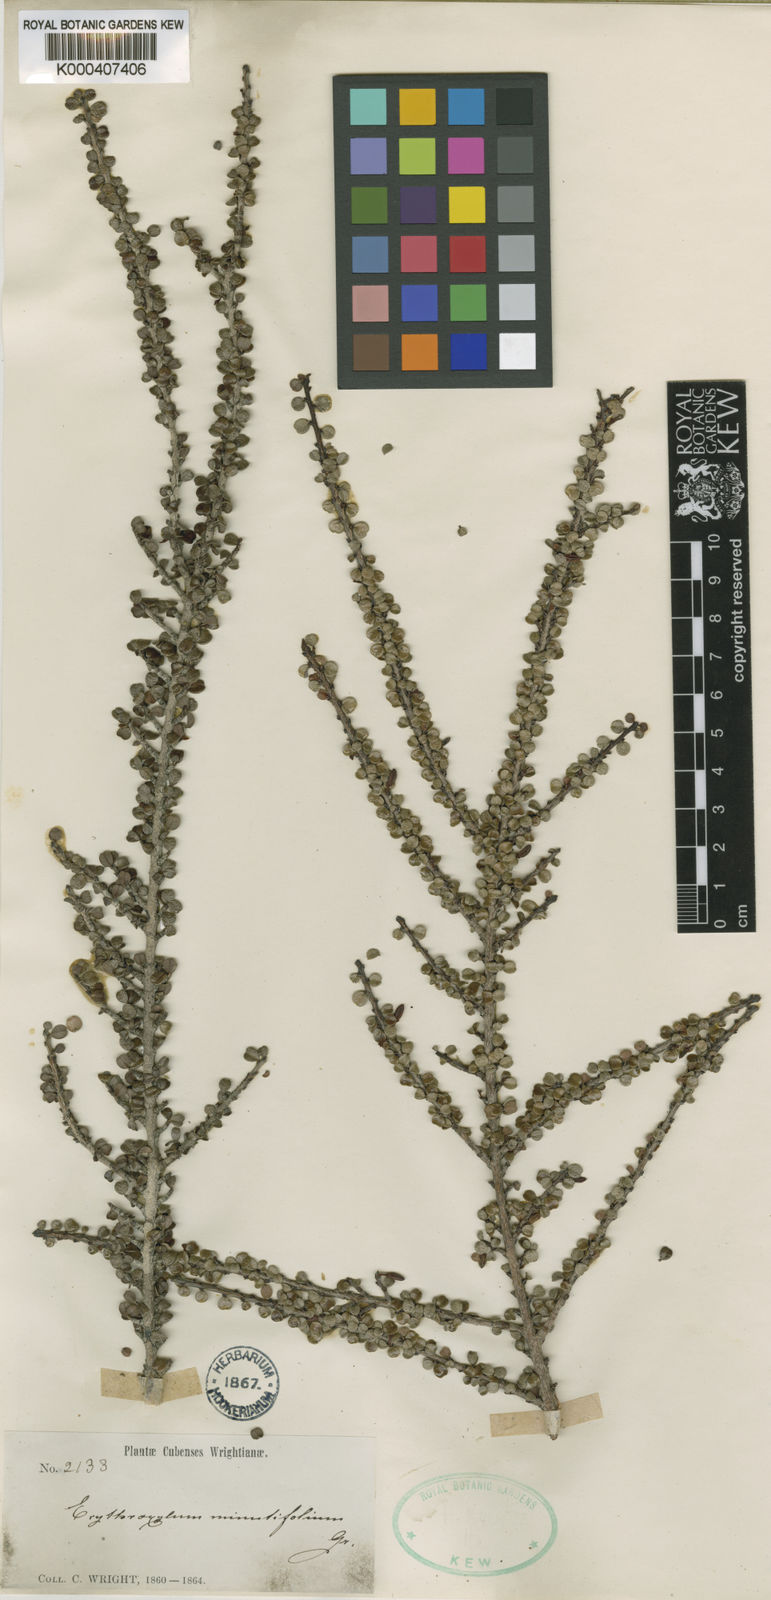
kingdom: Plantae
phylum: Tracheophyta
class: Magnoliopsida
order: Malpighiales
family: Erythroxylaceae
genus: Erythroxylum
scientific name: Erythroxylum minutifolium
